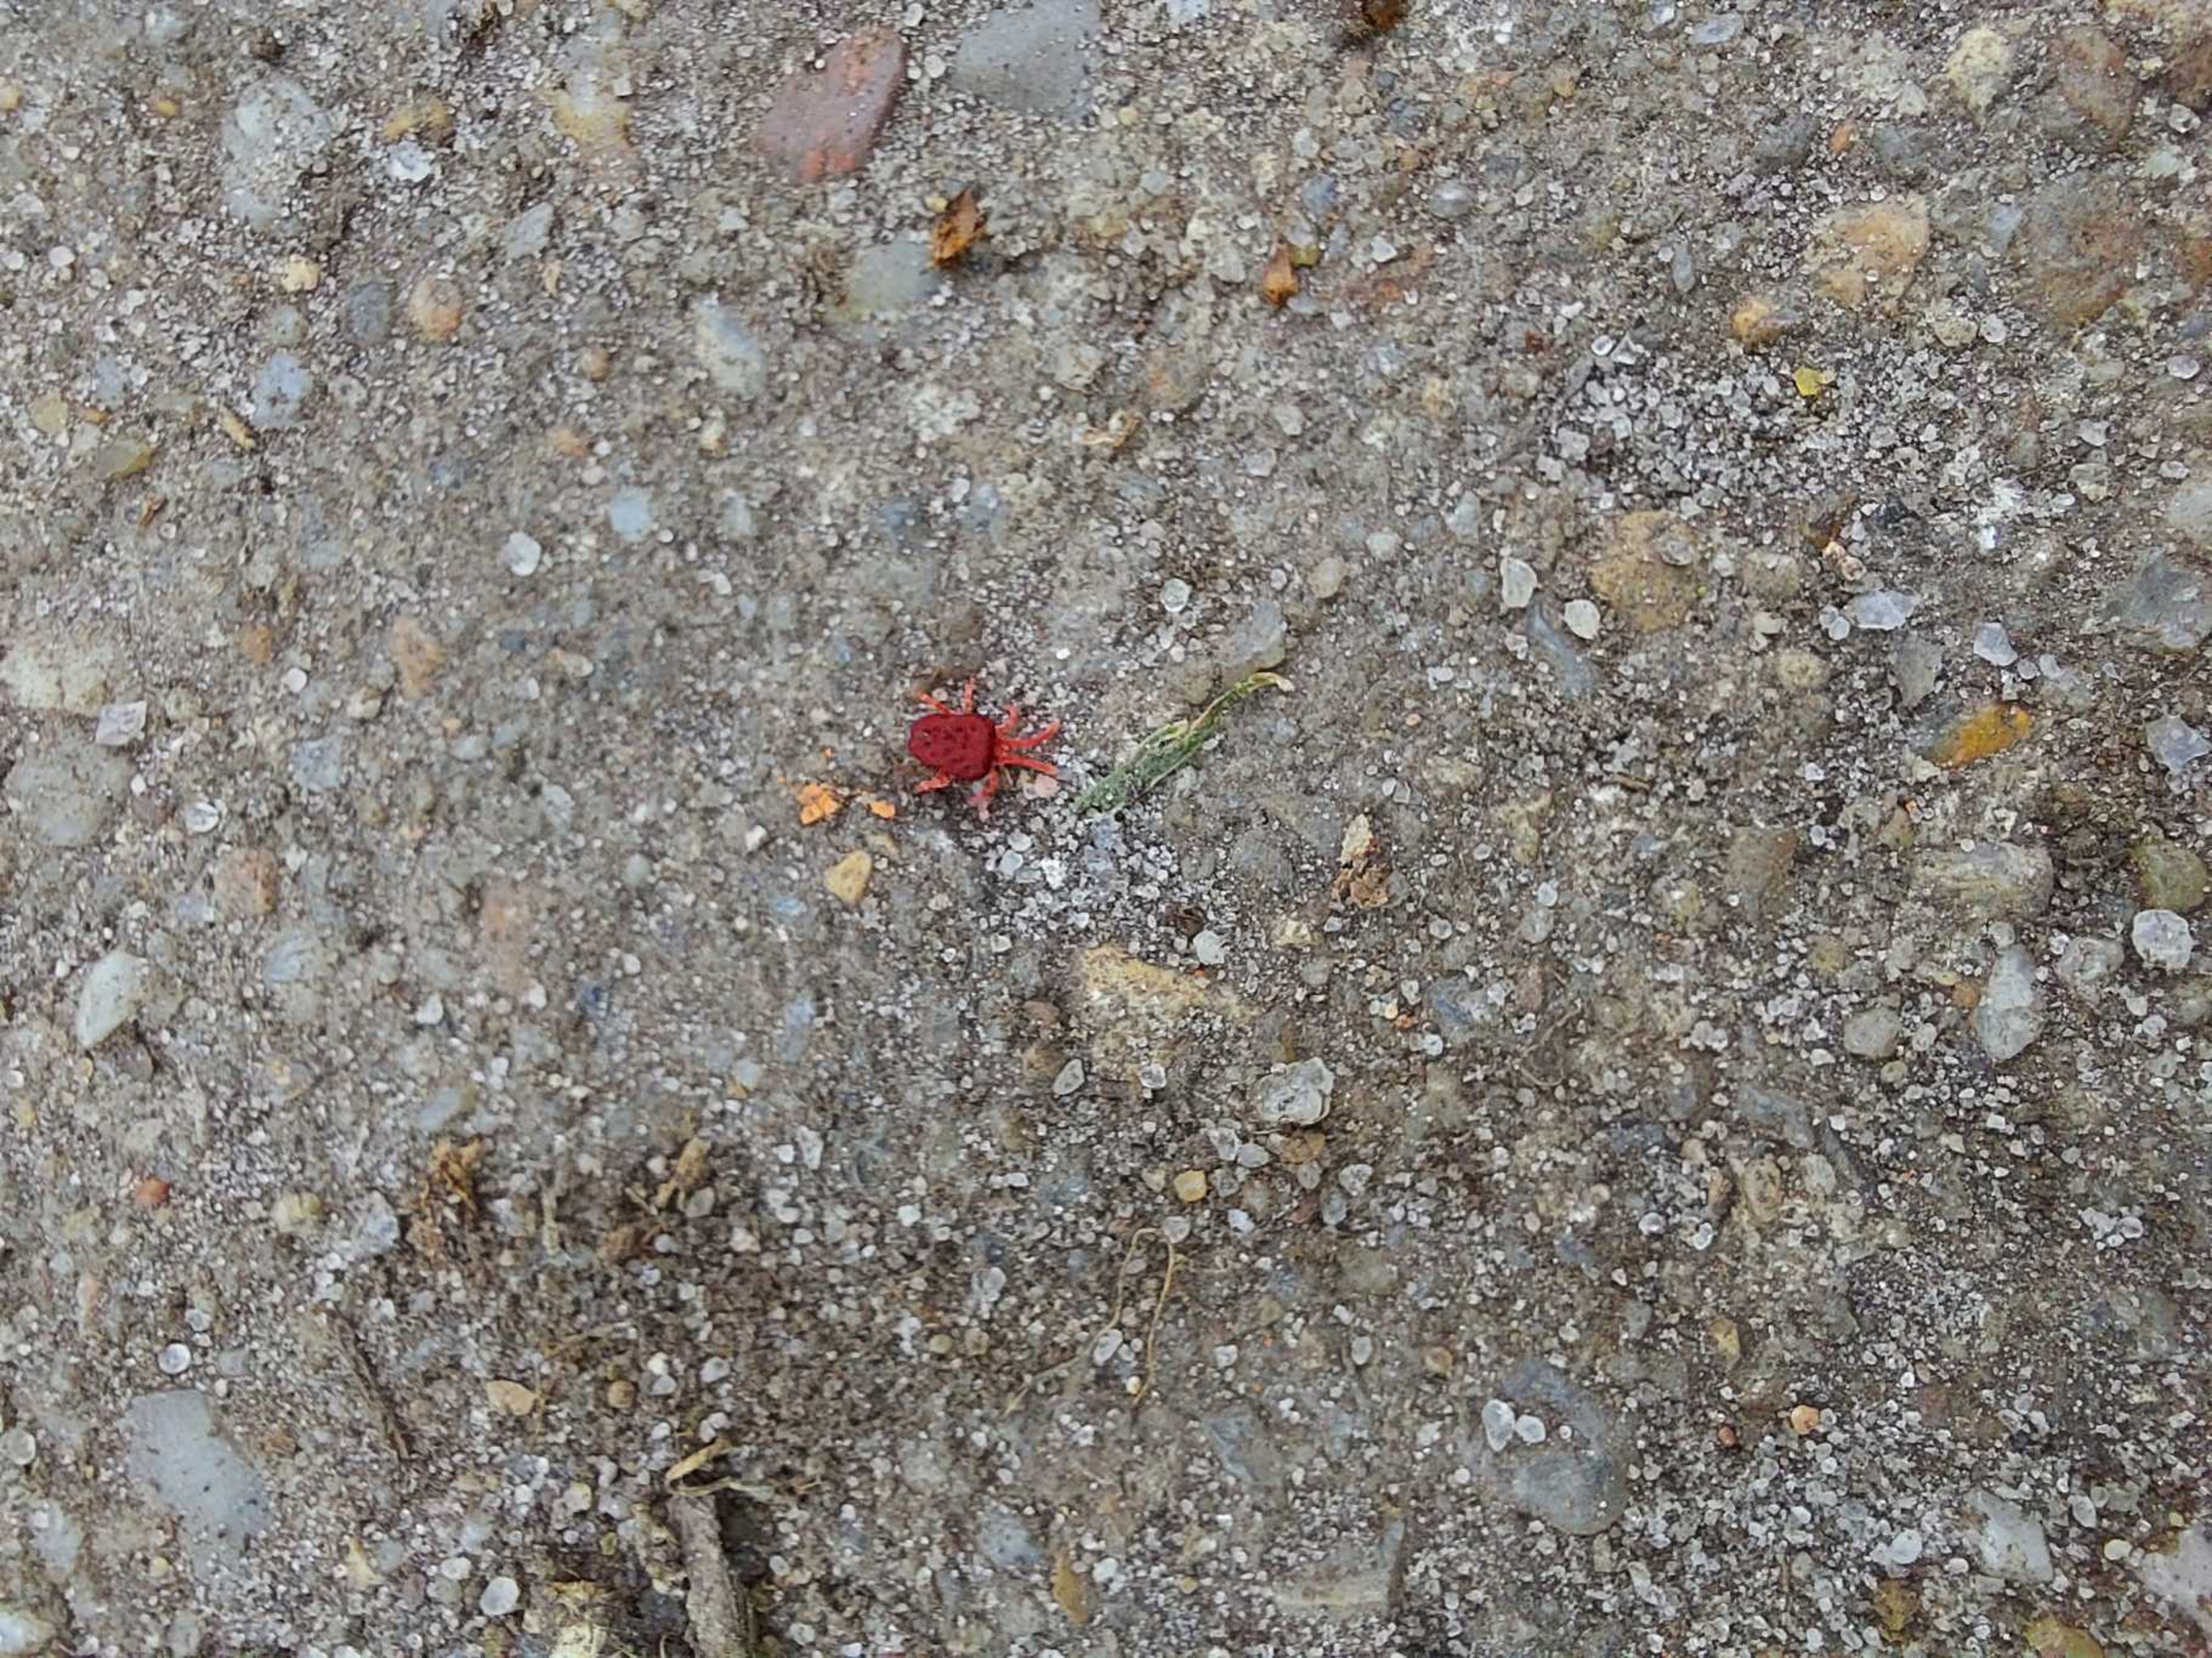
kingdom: Animalia
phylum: Arthropoda
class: Arachnida
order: Trombidiformes
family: Trombidiidae
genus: Trombidium
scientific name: Trombidium holosericeum
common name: Rød jordmide
